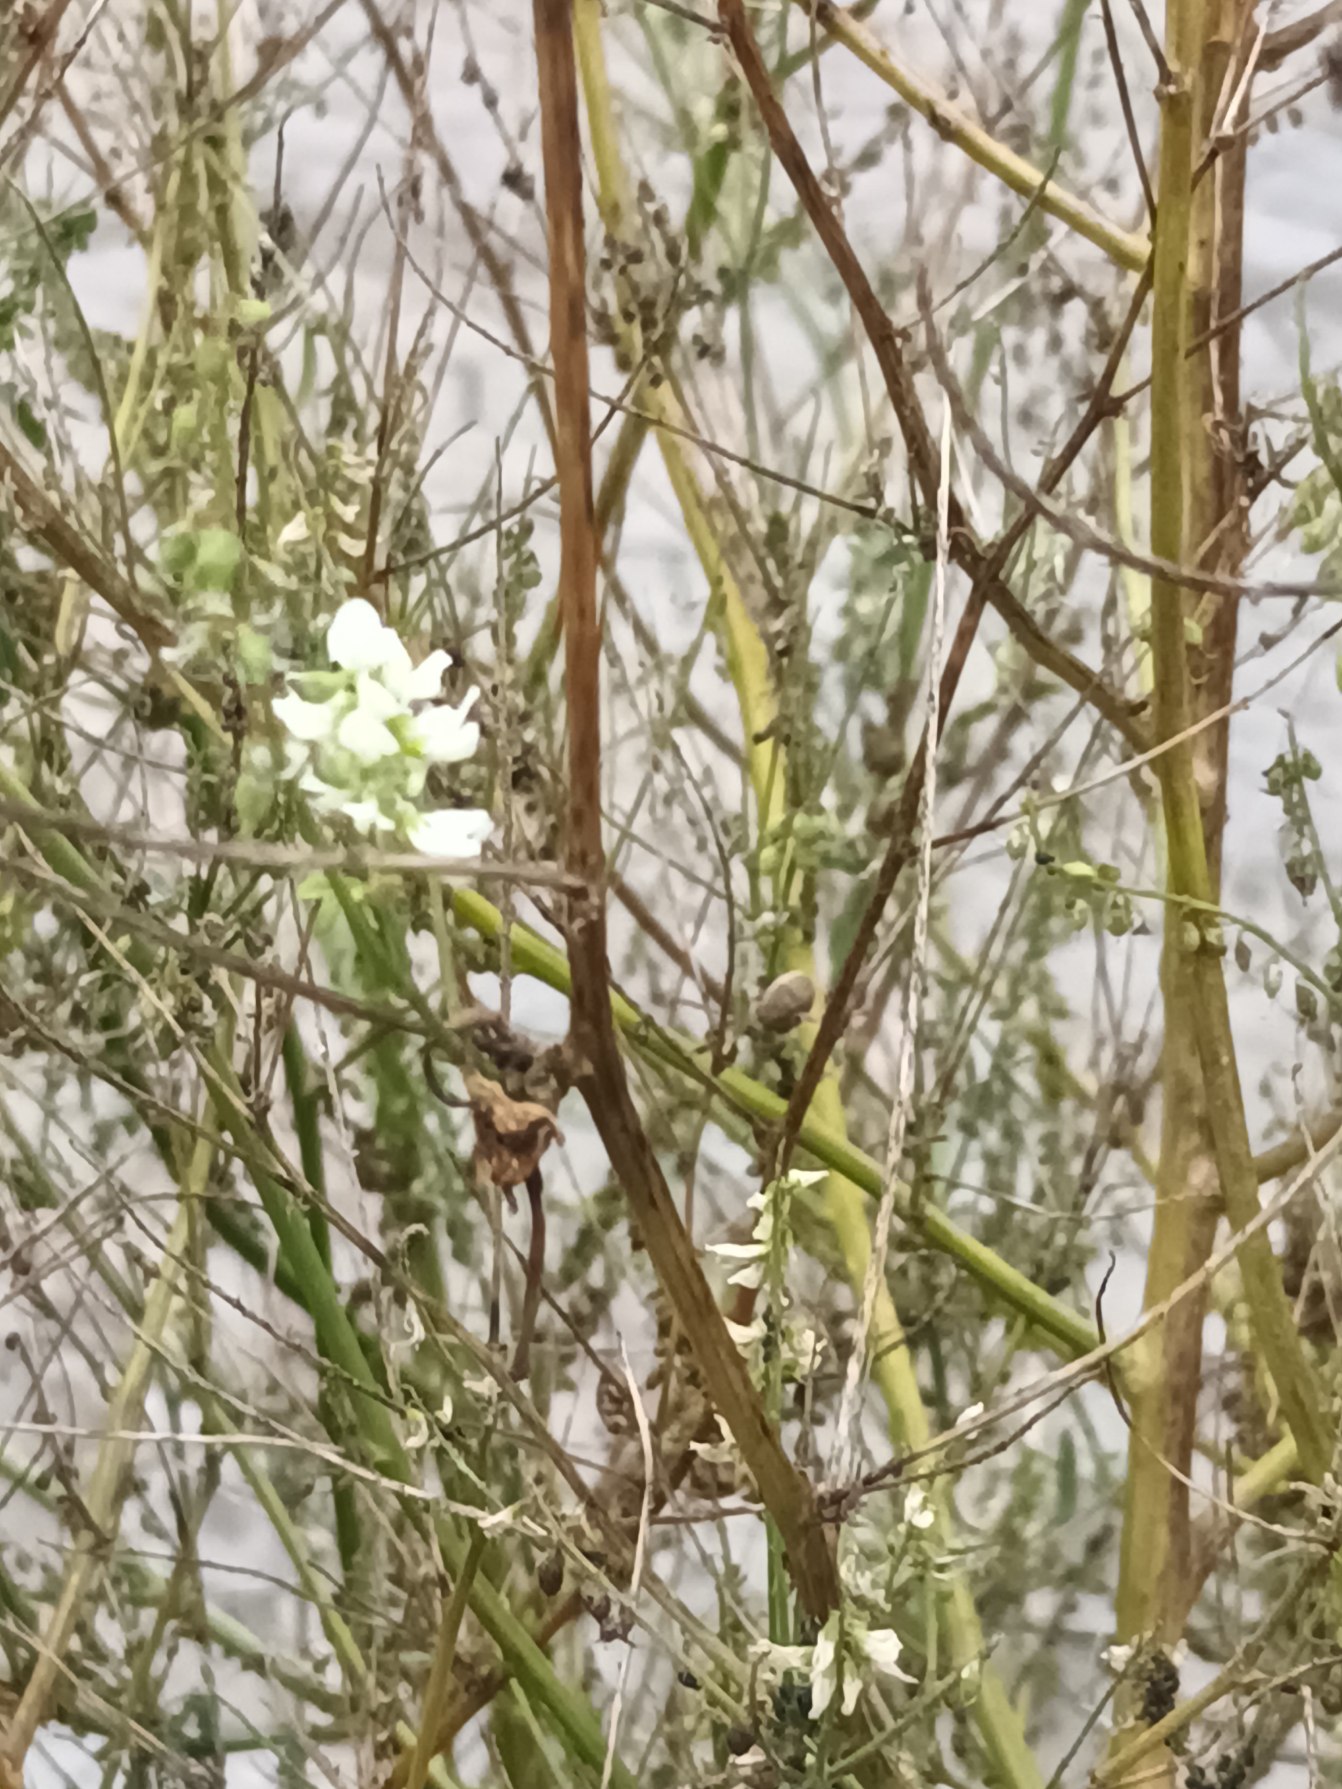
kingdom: Plantae
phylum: Tracheophyta
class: Magnoliopsida
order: Fabales
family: Fabaceae
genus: Melilotus
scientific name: Melilotus albus
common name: Hvid stenkløver
